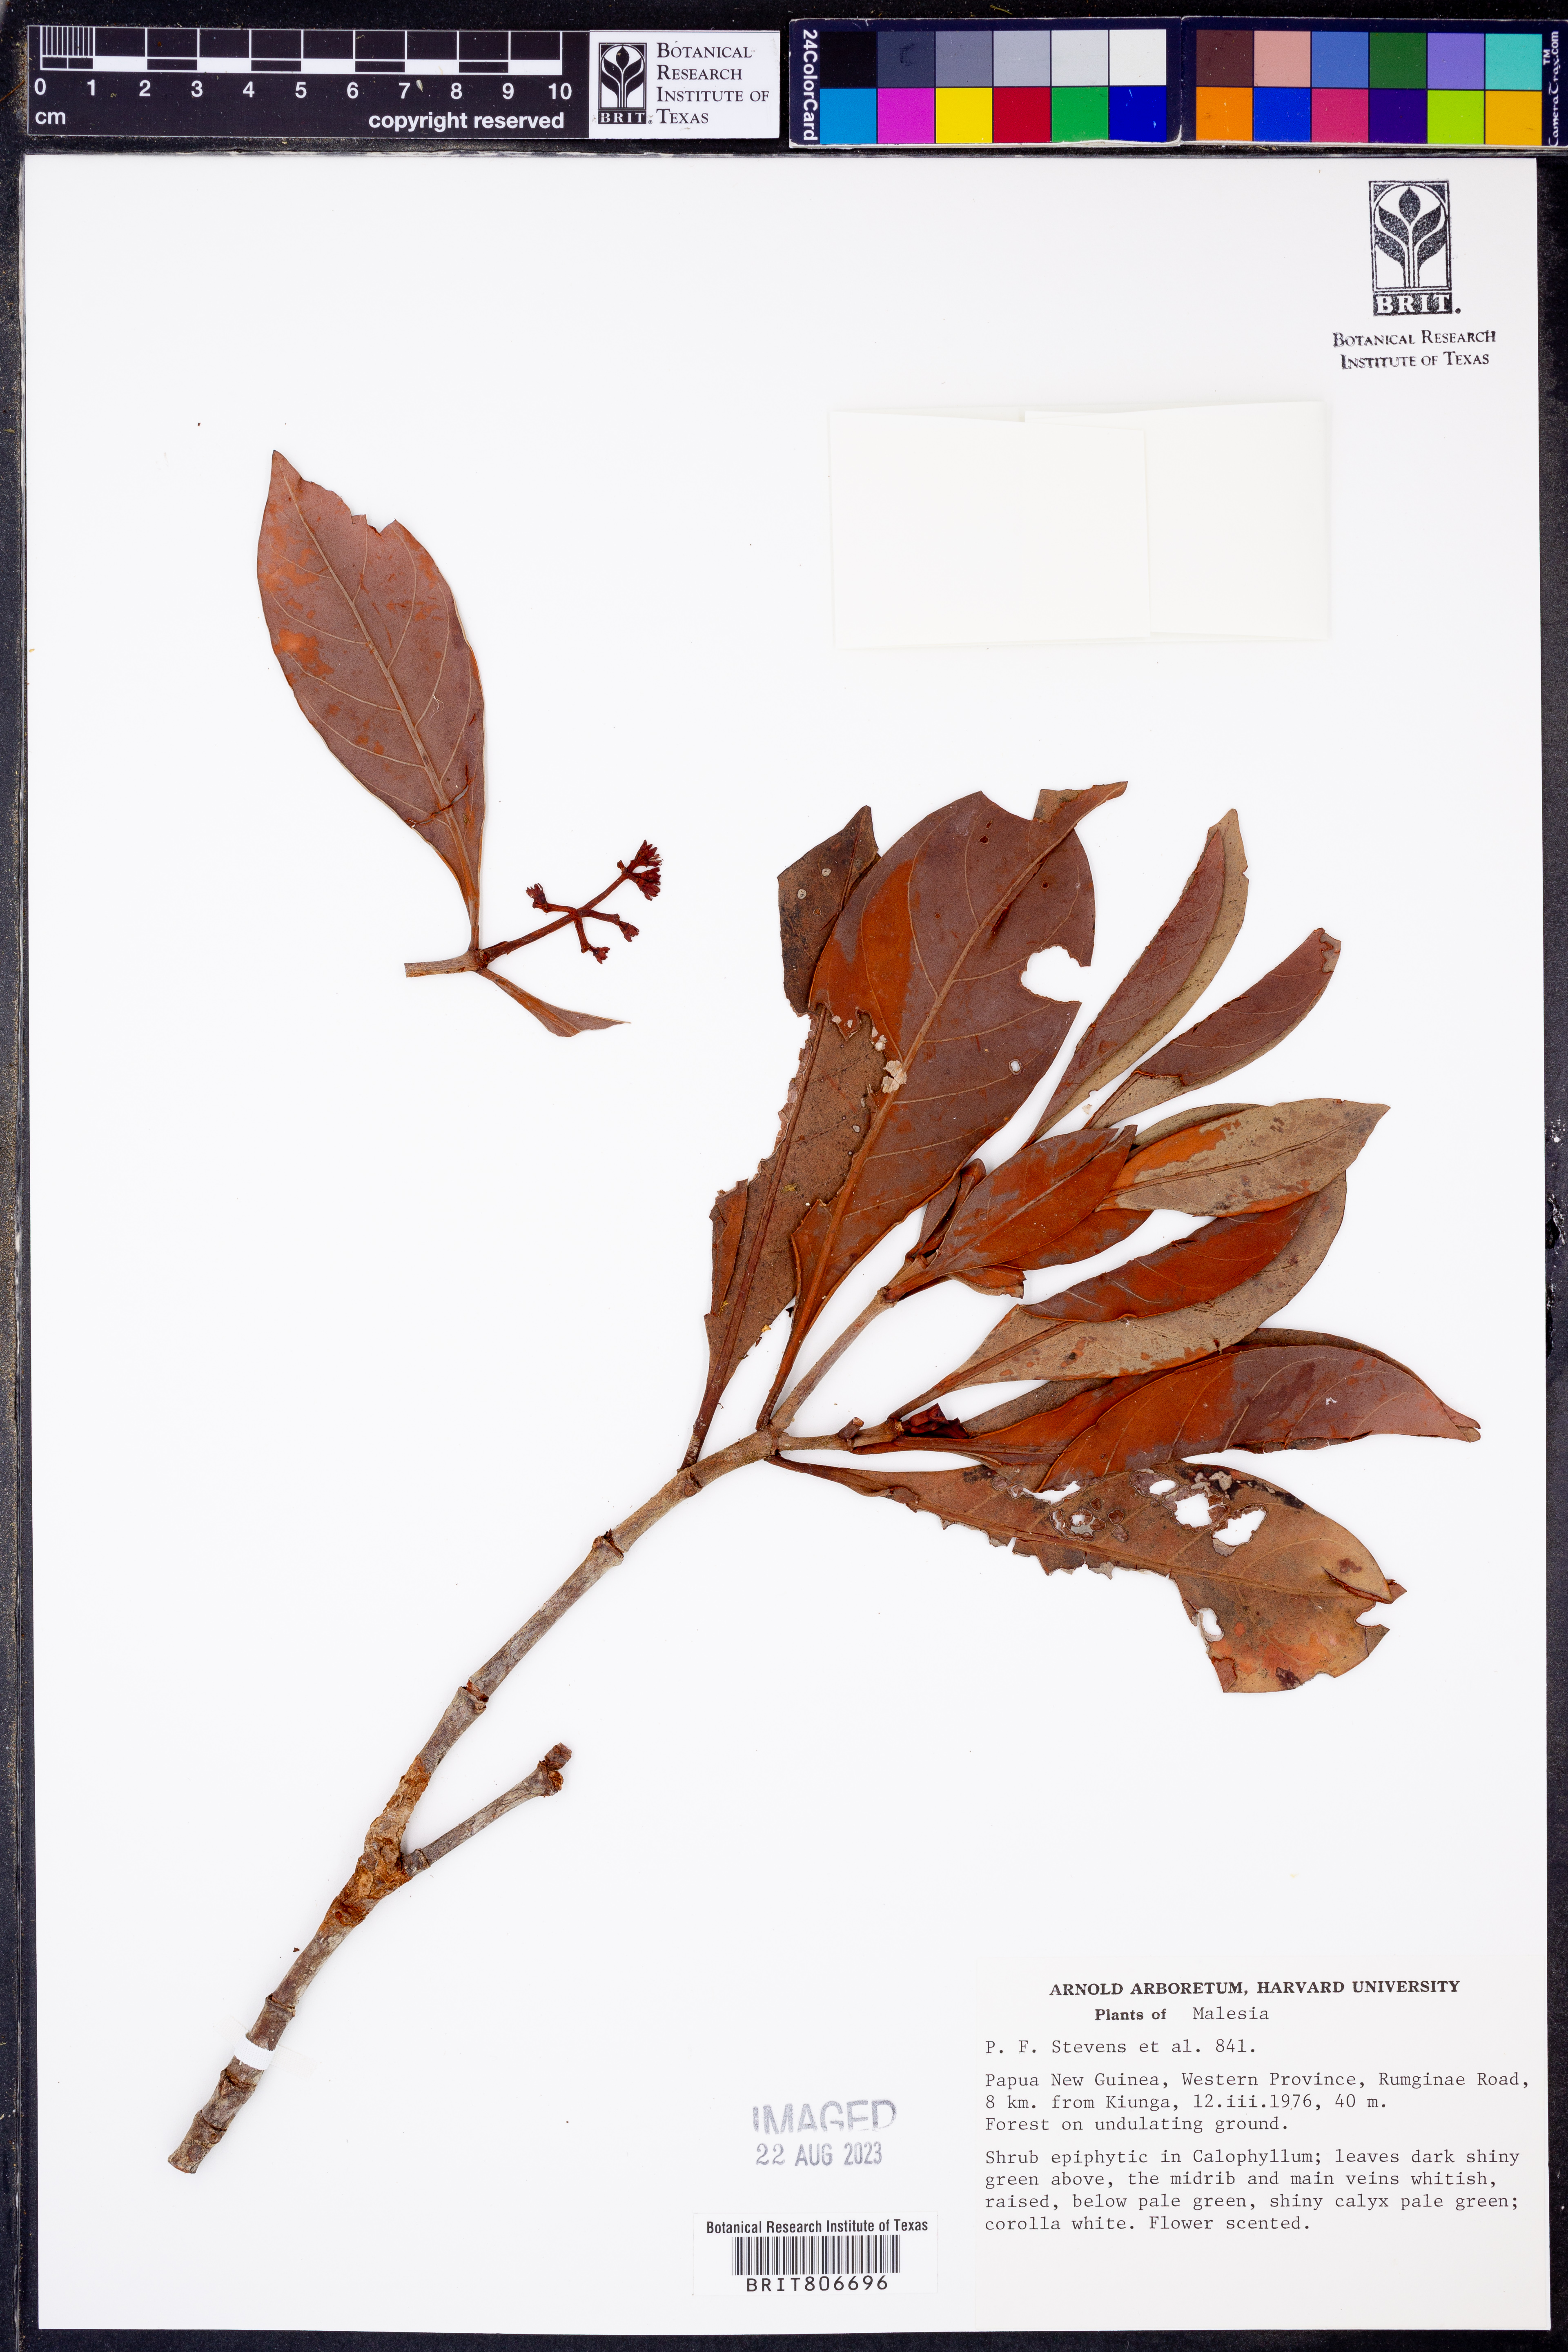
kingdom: Plantae
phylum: Tracheophyta
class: Magnoliopsida
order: Gentianales
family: Rubiaceae
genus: Psychotria
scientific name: Psychotria
